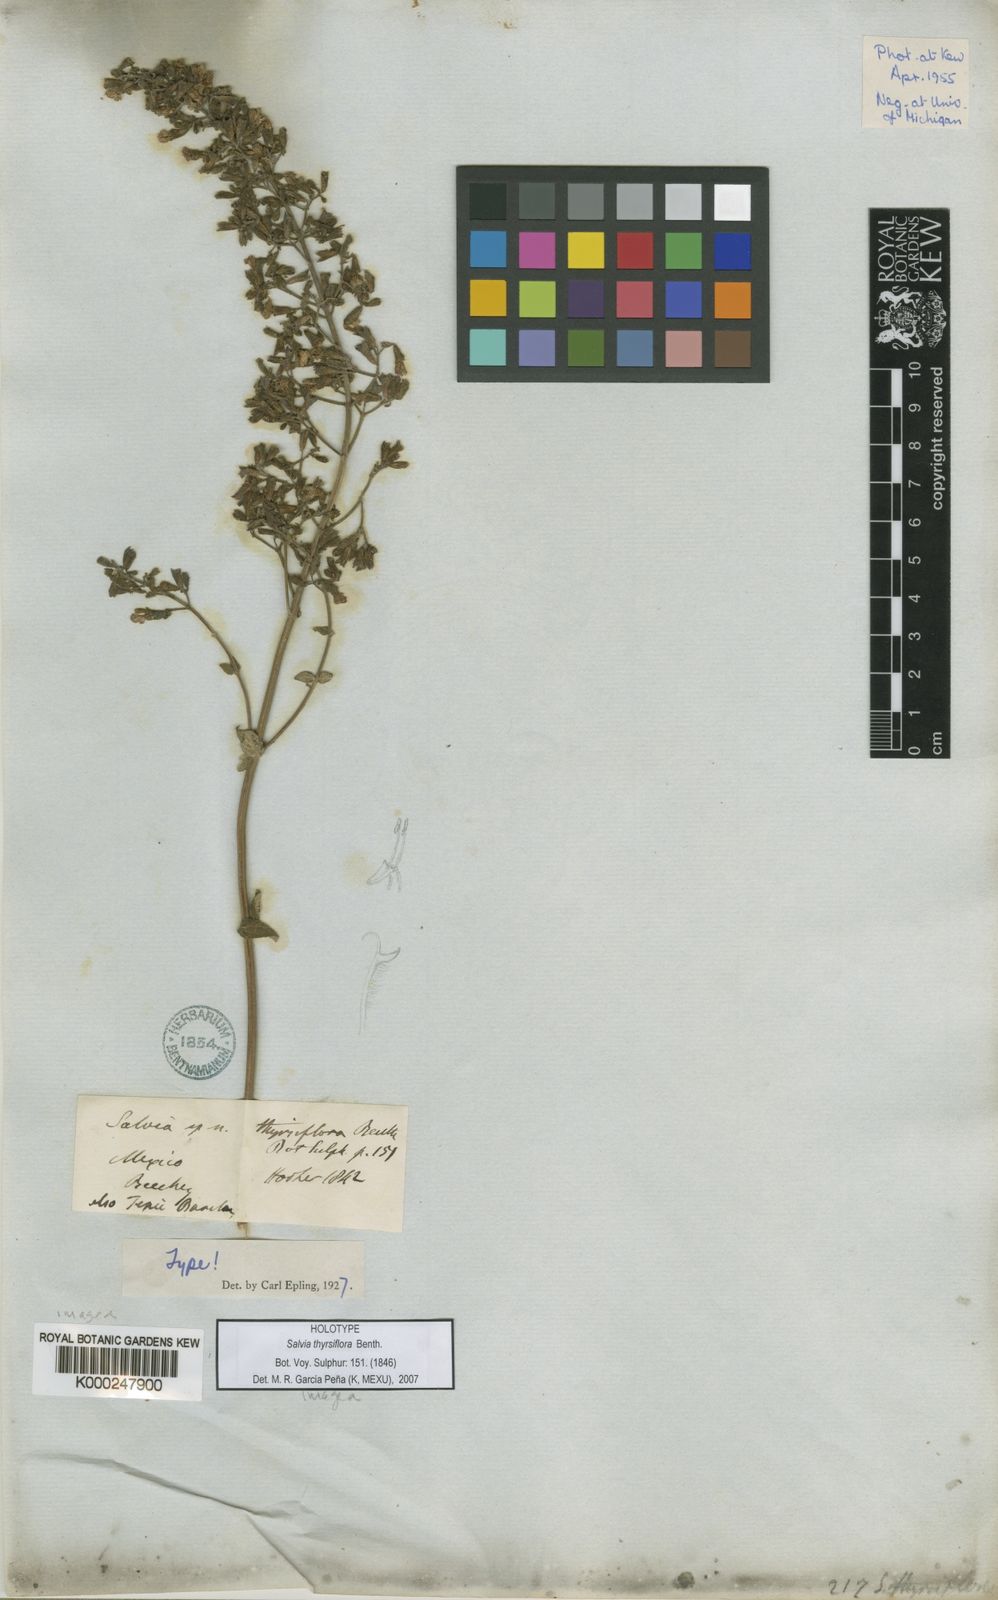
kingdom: Plantae
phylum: Tracheophyta
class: Magnoliopsida
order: Lamiales
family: Lamiaceae
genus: Salvia
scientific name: Salvia thyrsiflora
